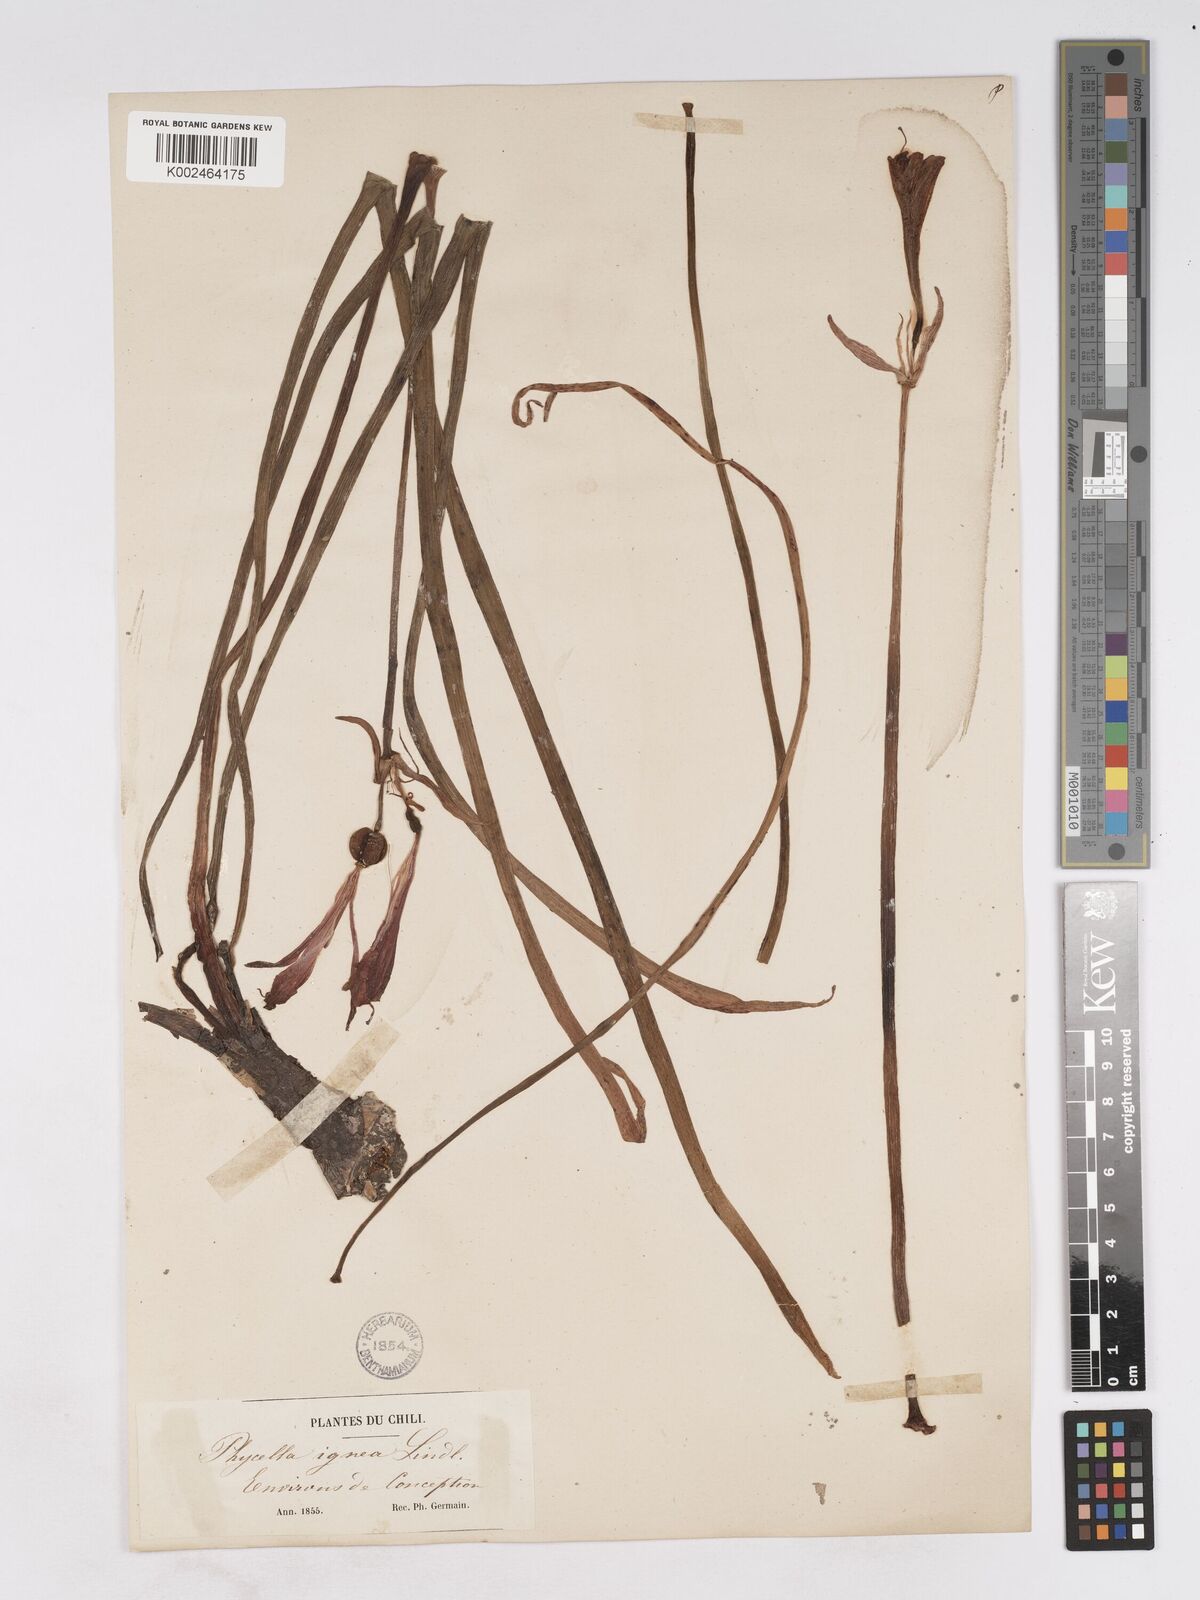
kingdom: Plantae
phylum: Tracheophyta
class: Liliopsida
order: Asparagales
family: Amaryllidaceae
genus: Phycella
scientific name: Phycella cyrtanthoides
